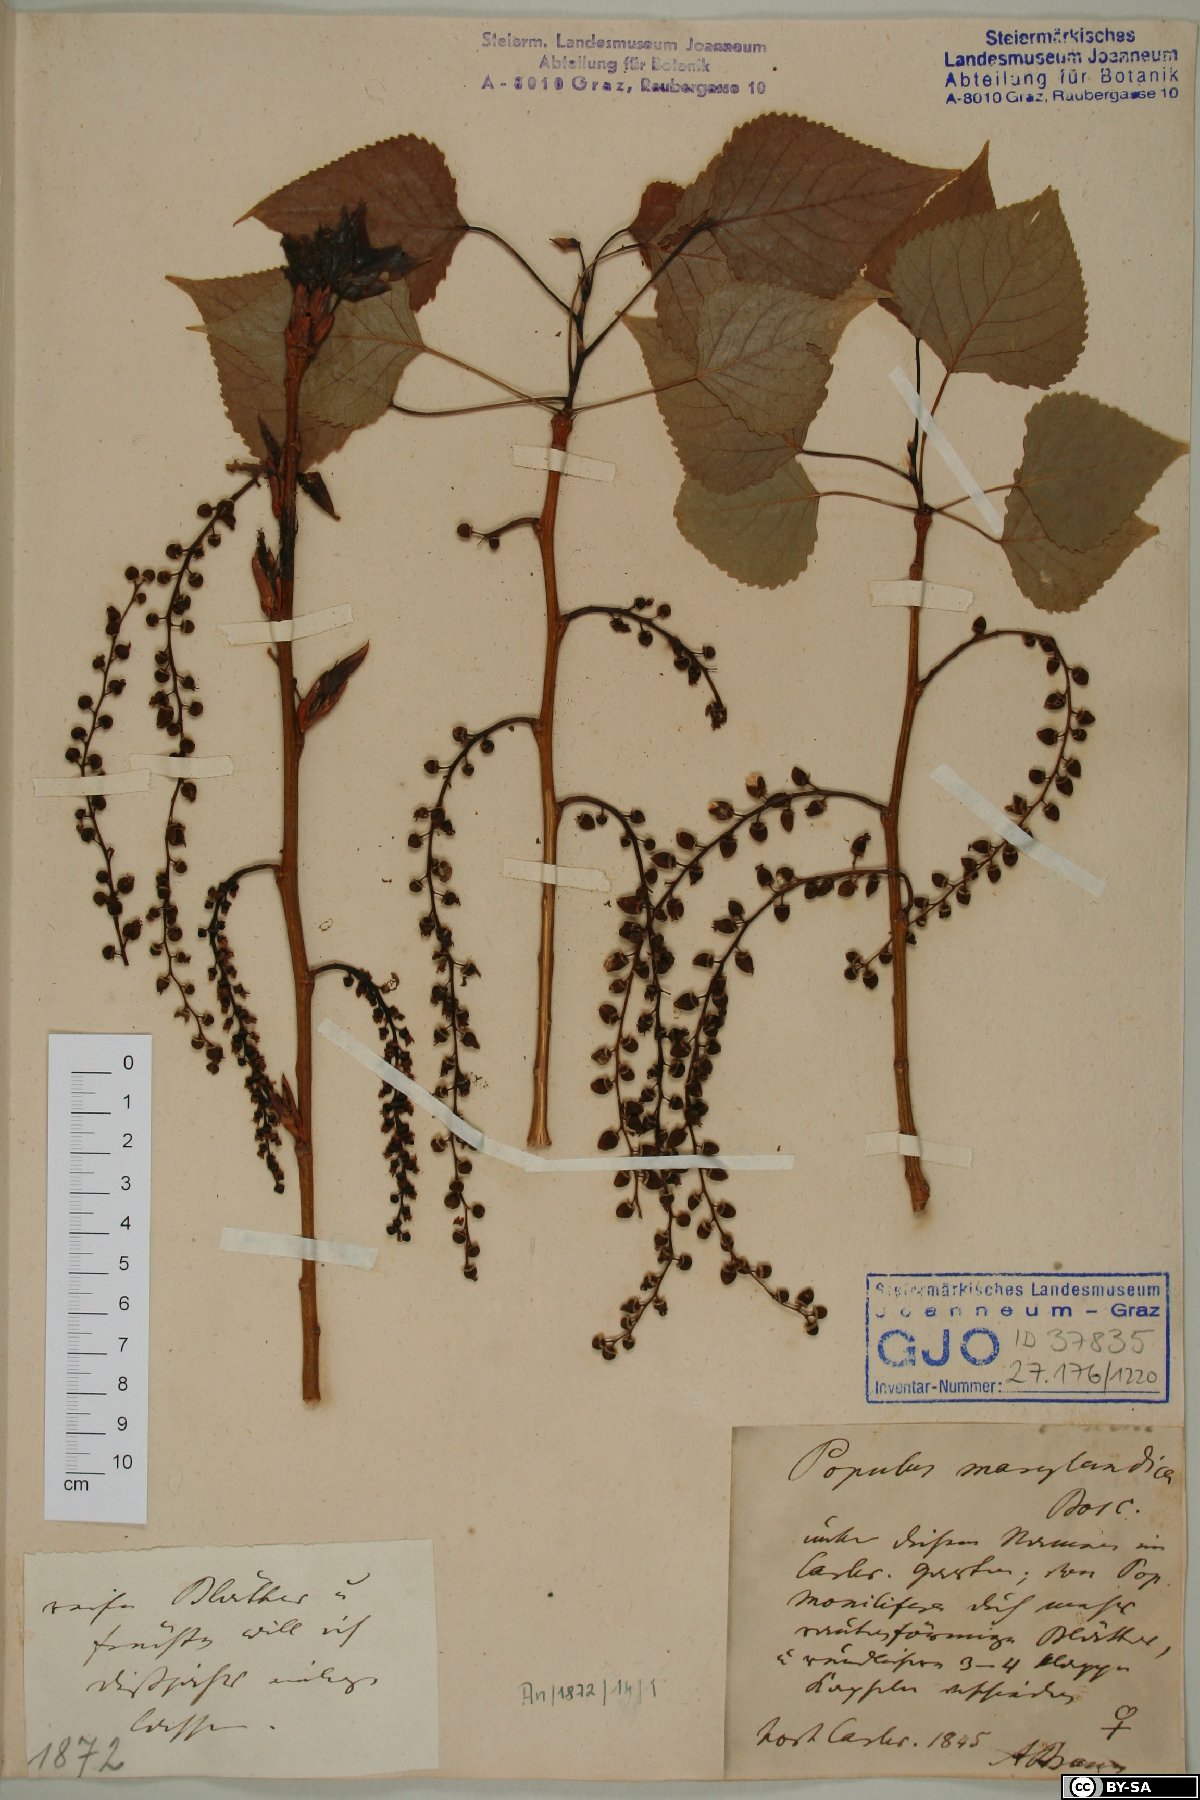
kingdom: Plantae
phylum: Tracheophyta
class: Magnoliopsida
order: Malpighiales
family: Salicaceae
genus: Populus
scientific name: Populus deltoides
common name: Eastern cottonwood
